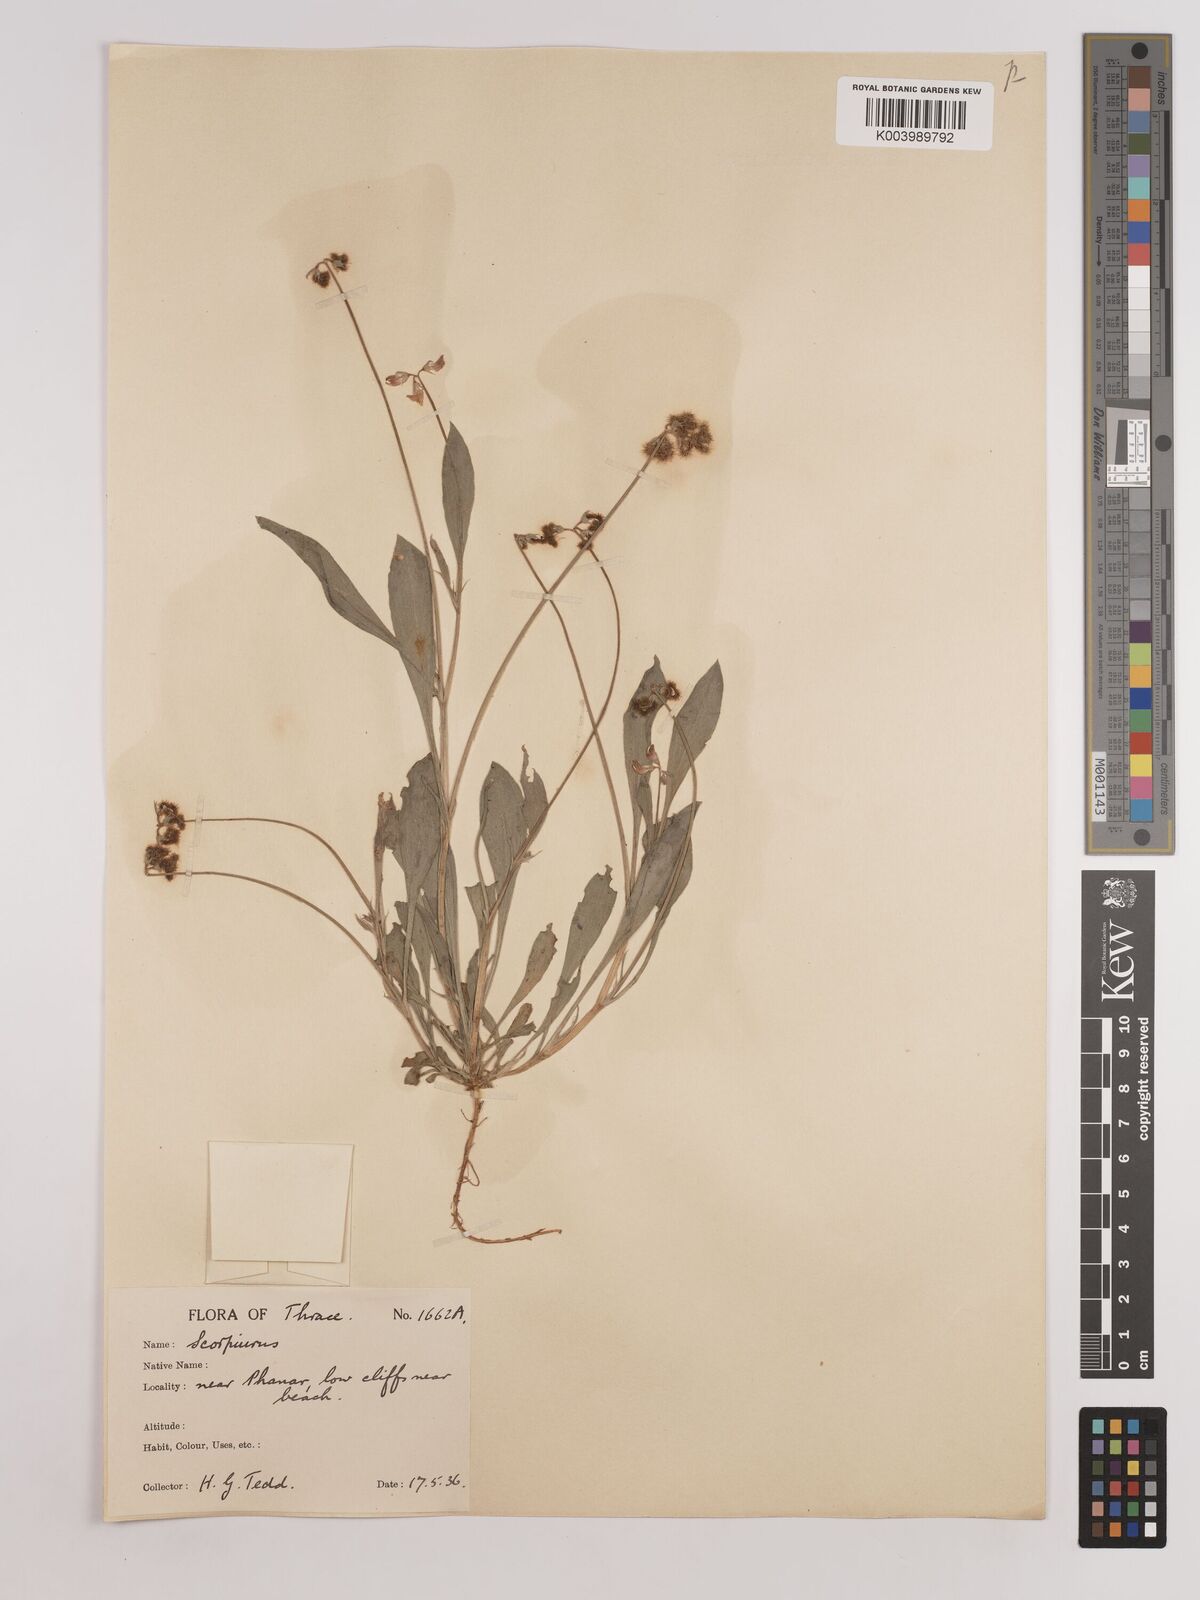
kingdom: Plantae
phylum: Tracheophyta
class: Magnoliopsida
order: Fabales
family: Fabaceae
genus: Scorpiurus
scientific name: Scorpiurus muricatus
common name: Caterpillar-plant
